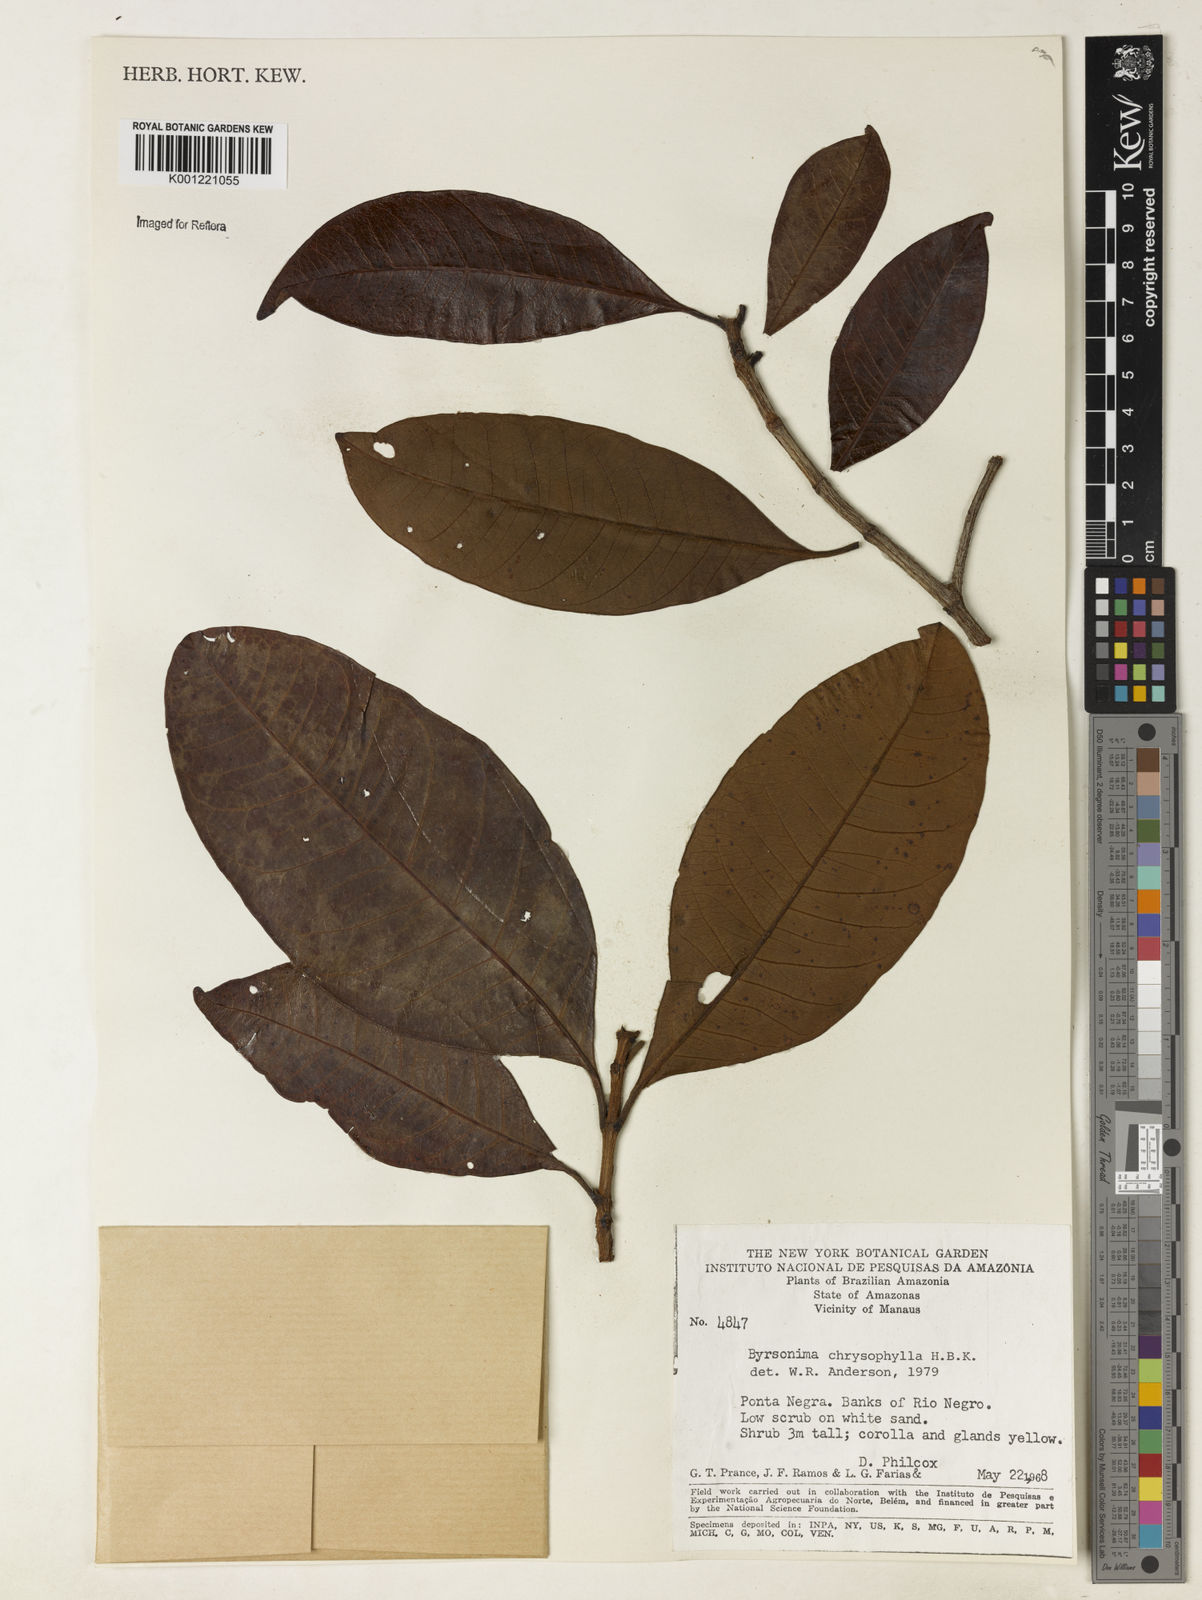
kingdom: Plantae
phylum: Tracheophyta
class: Magnoliopsida
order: Malpighiales
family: Malpighiaceae
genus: Byrsonima
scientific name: Byrsonima chrysophylla
